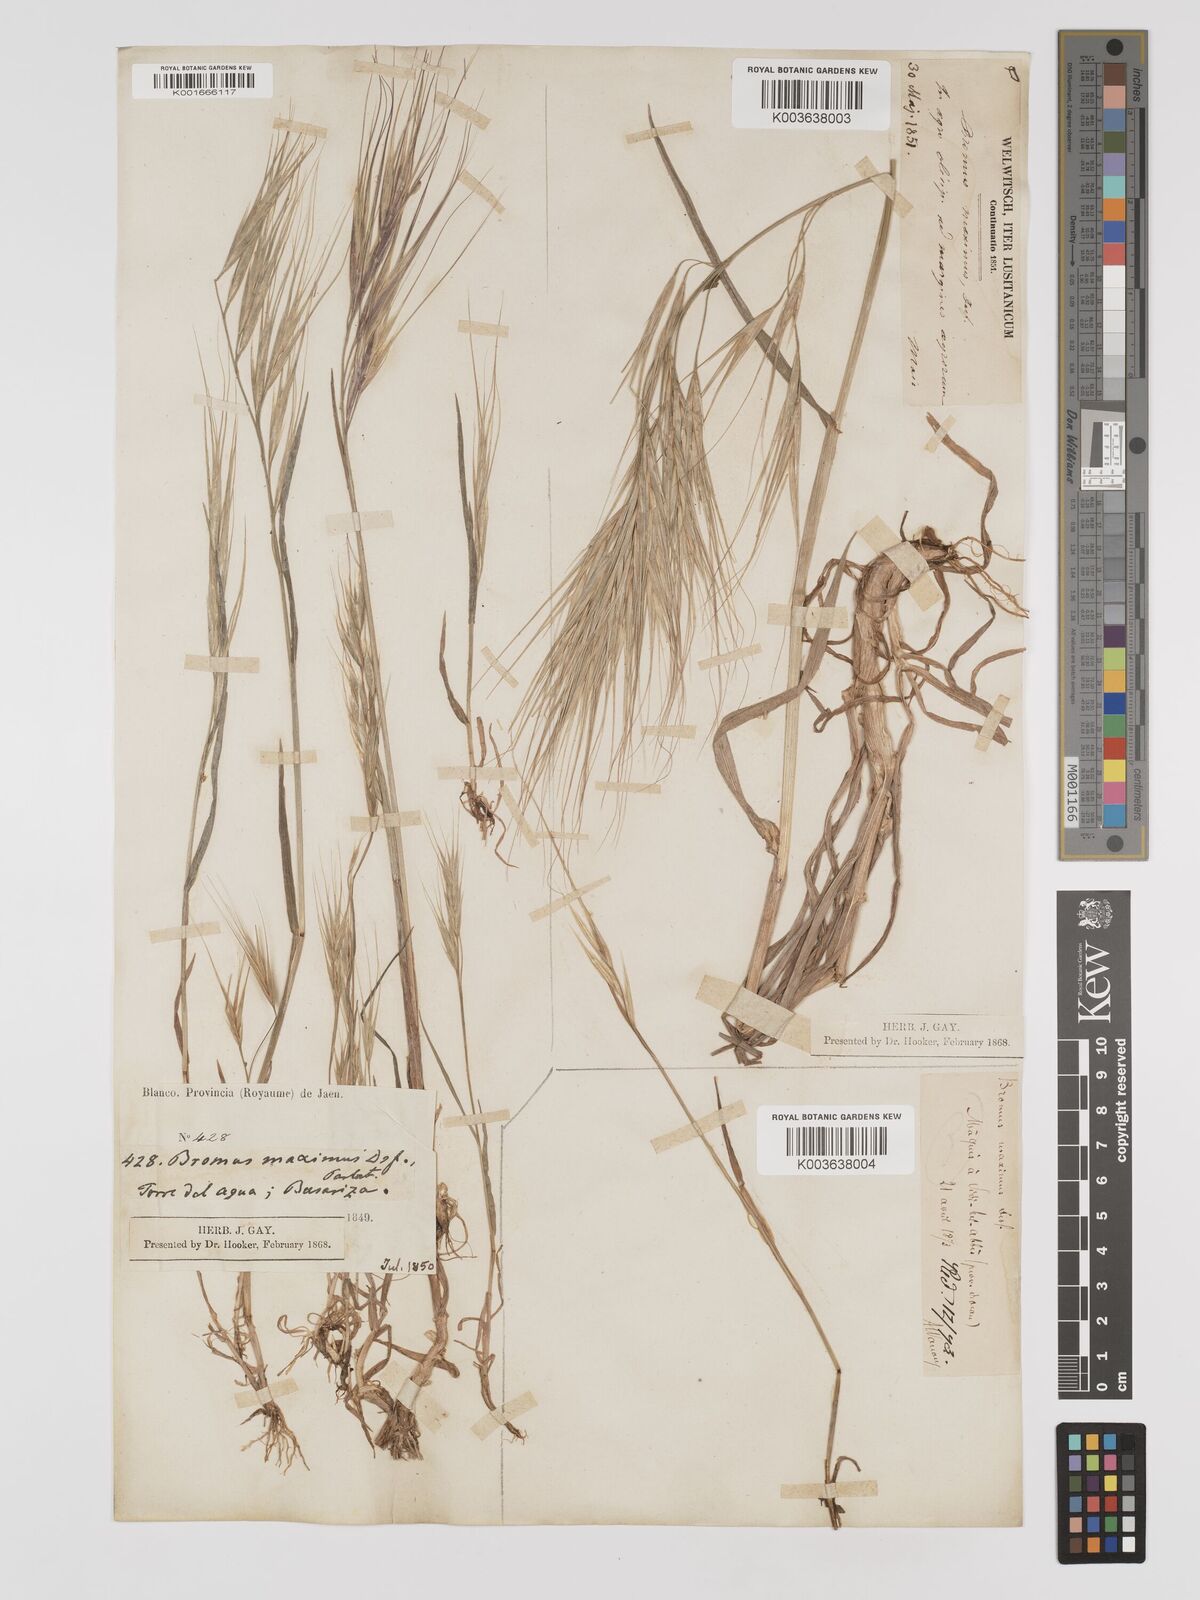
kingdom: Plantae
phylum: Tracheophyta
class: Liliopsida
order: Poales
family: Poaceae
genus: Bromus
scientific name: Bromus
